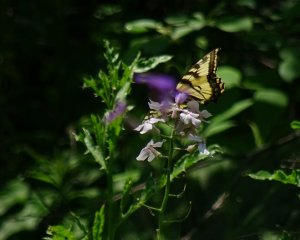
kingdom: Animalia
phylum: Arthropoda
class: Insecta
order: Lepidoptera
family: Papilionidae
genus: Pterourus
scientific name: Pterourus glaucus
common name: Eastern Tiger Swallowtail
